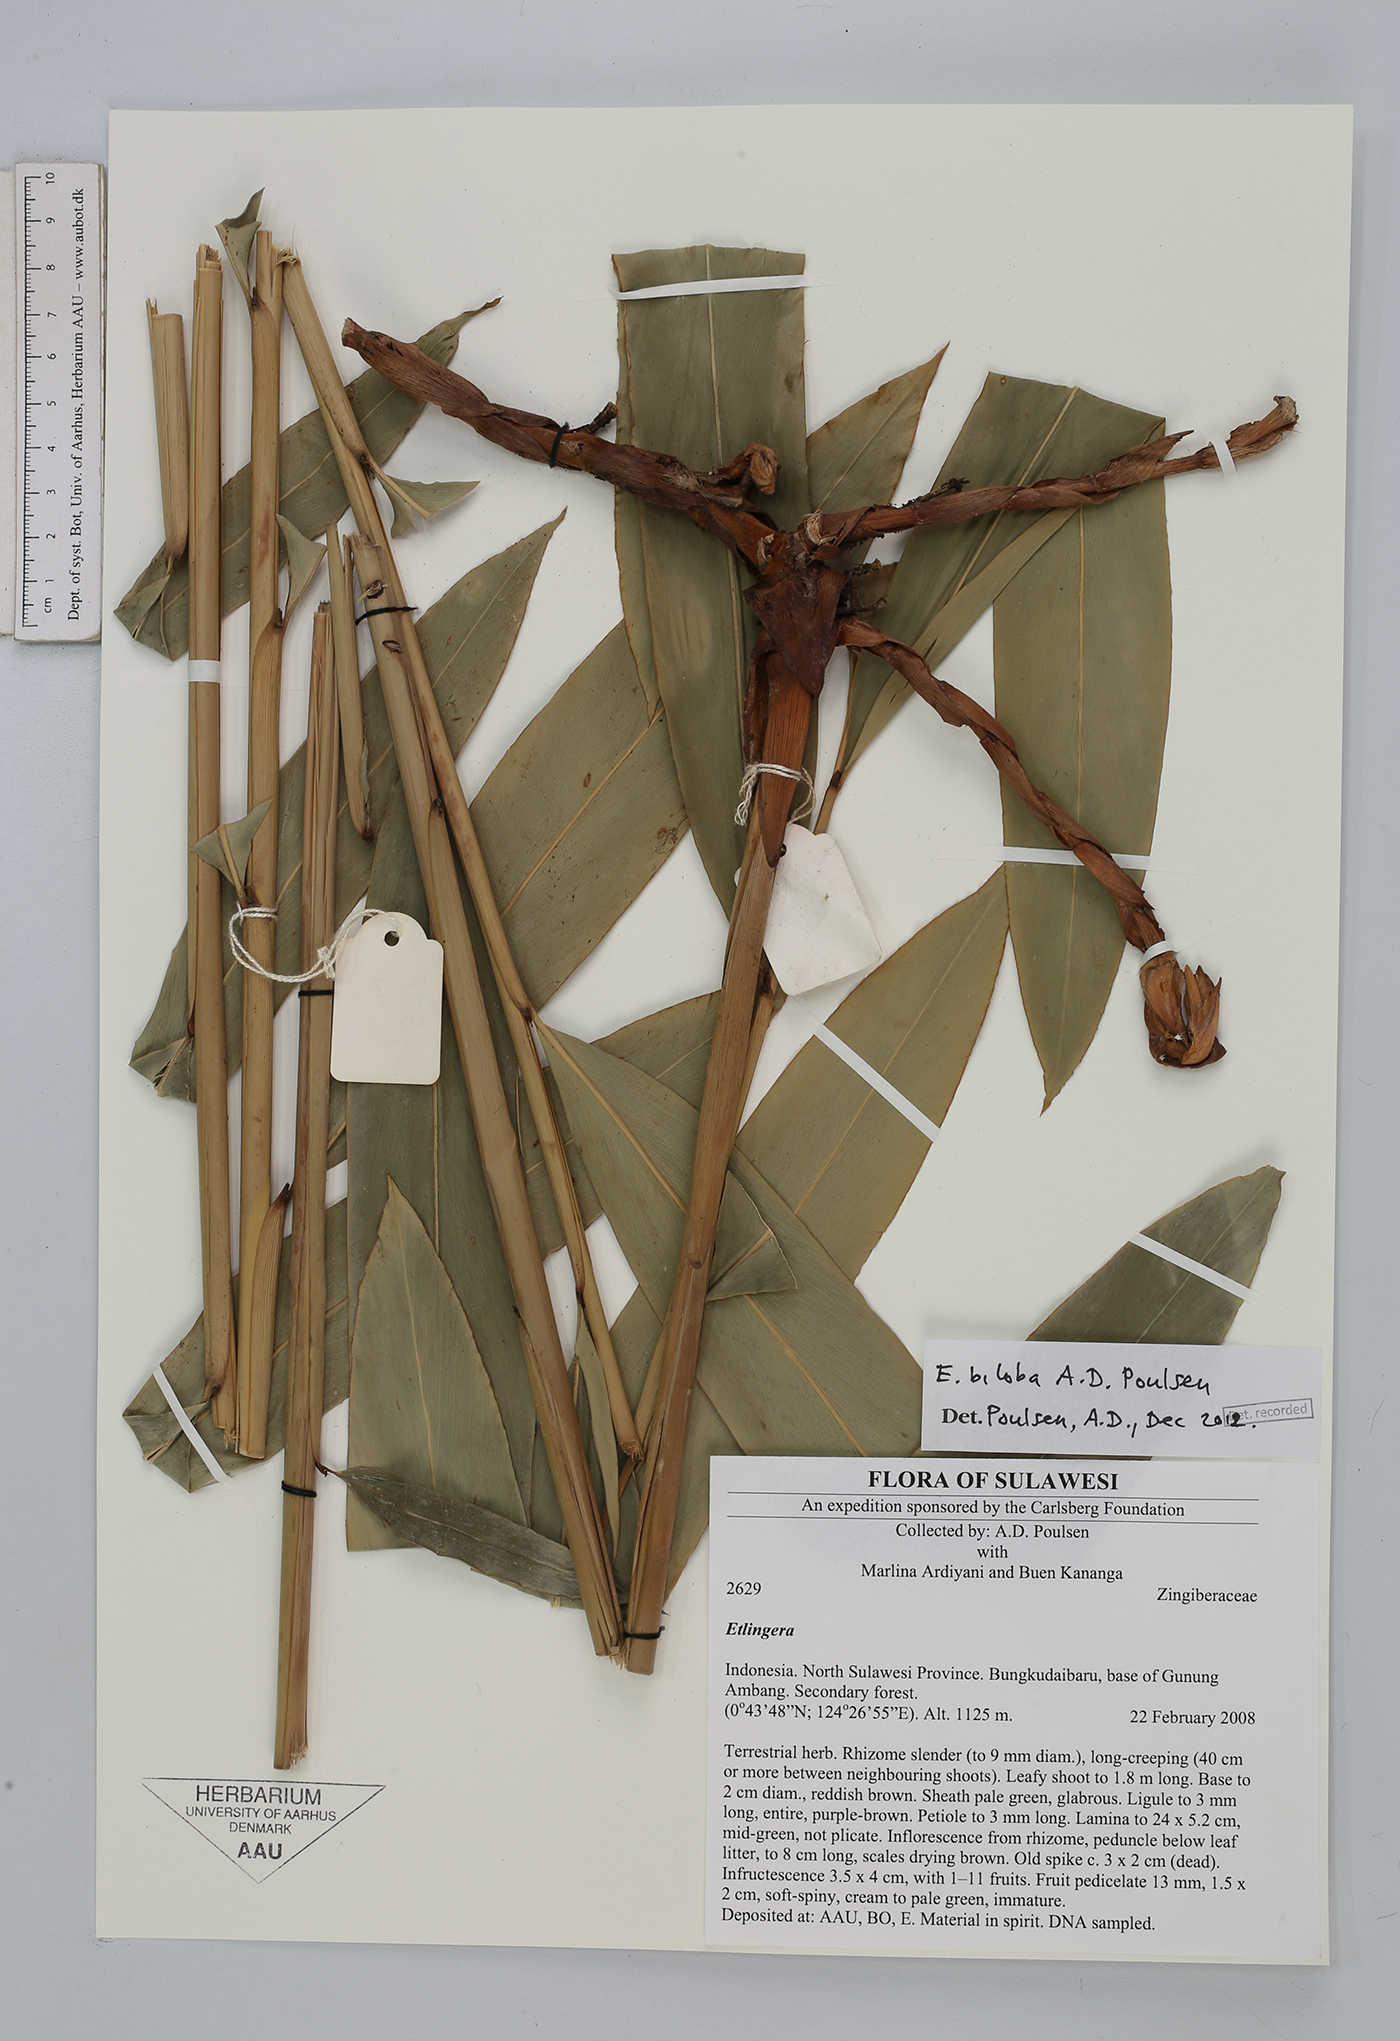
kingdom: Plantae
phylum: Tracheophyta
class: Liliopsida
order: Zingiberales
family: Zingiberaceae
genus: Etlingera
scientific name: Etlingera biloba
